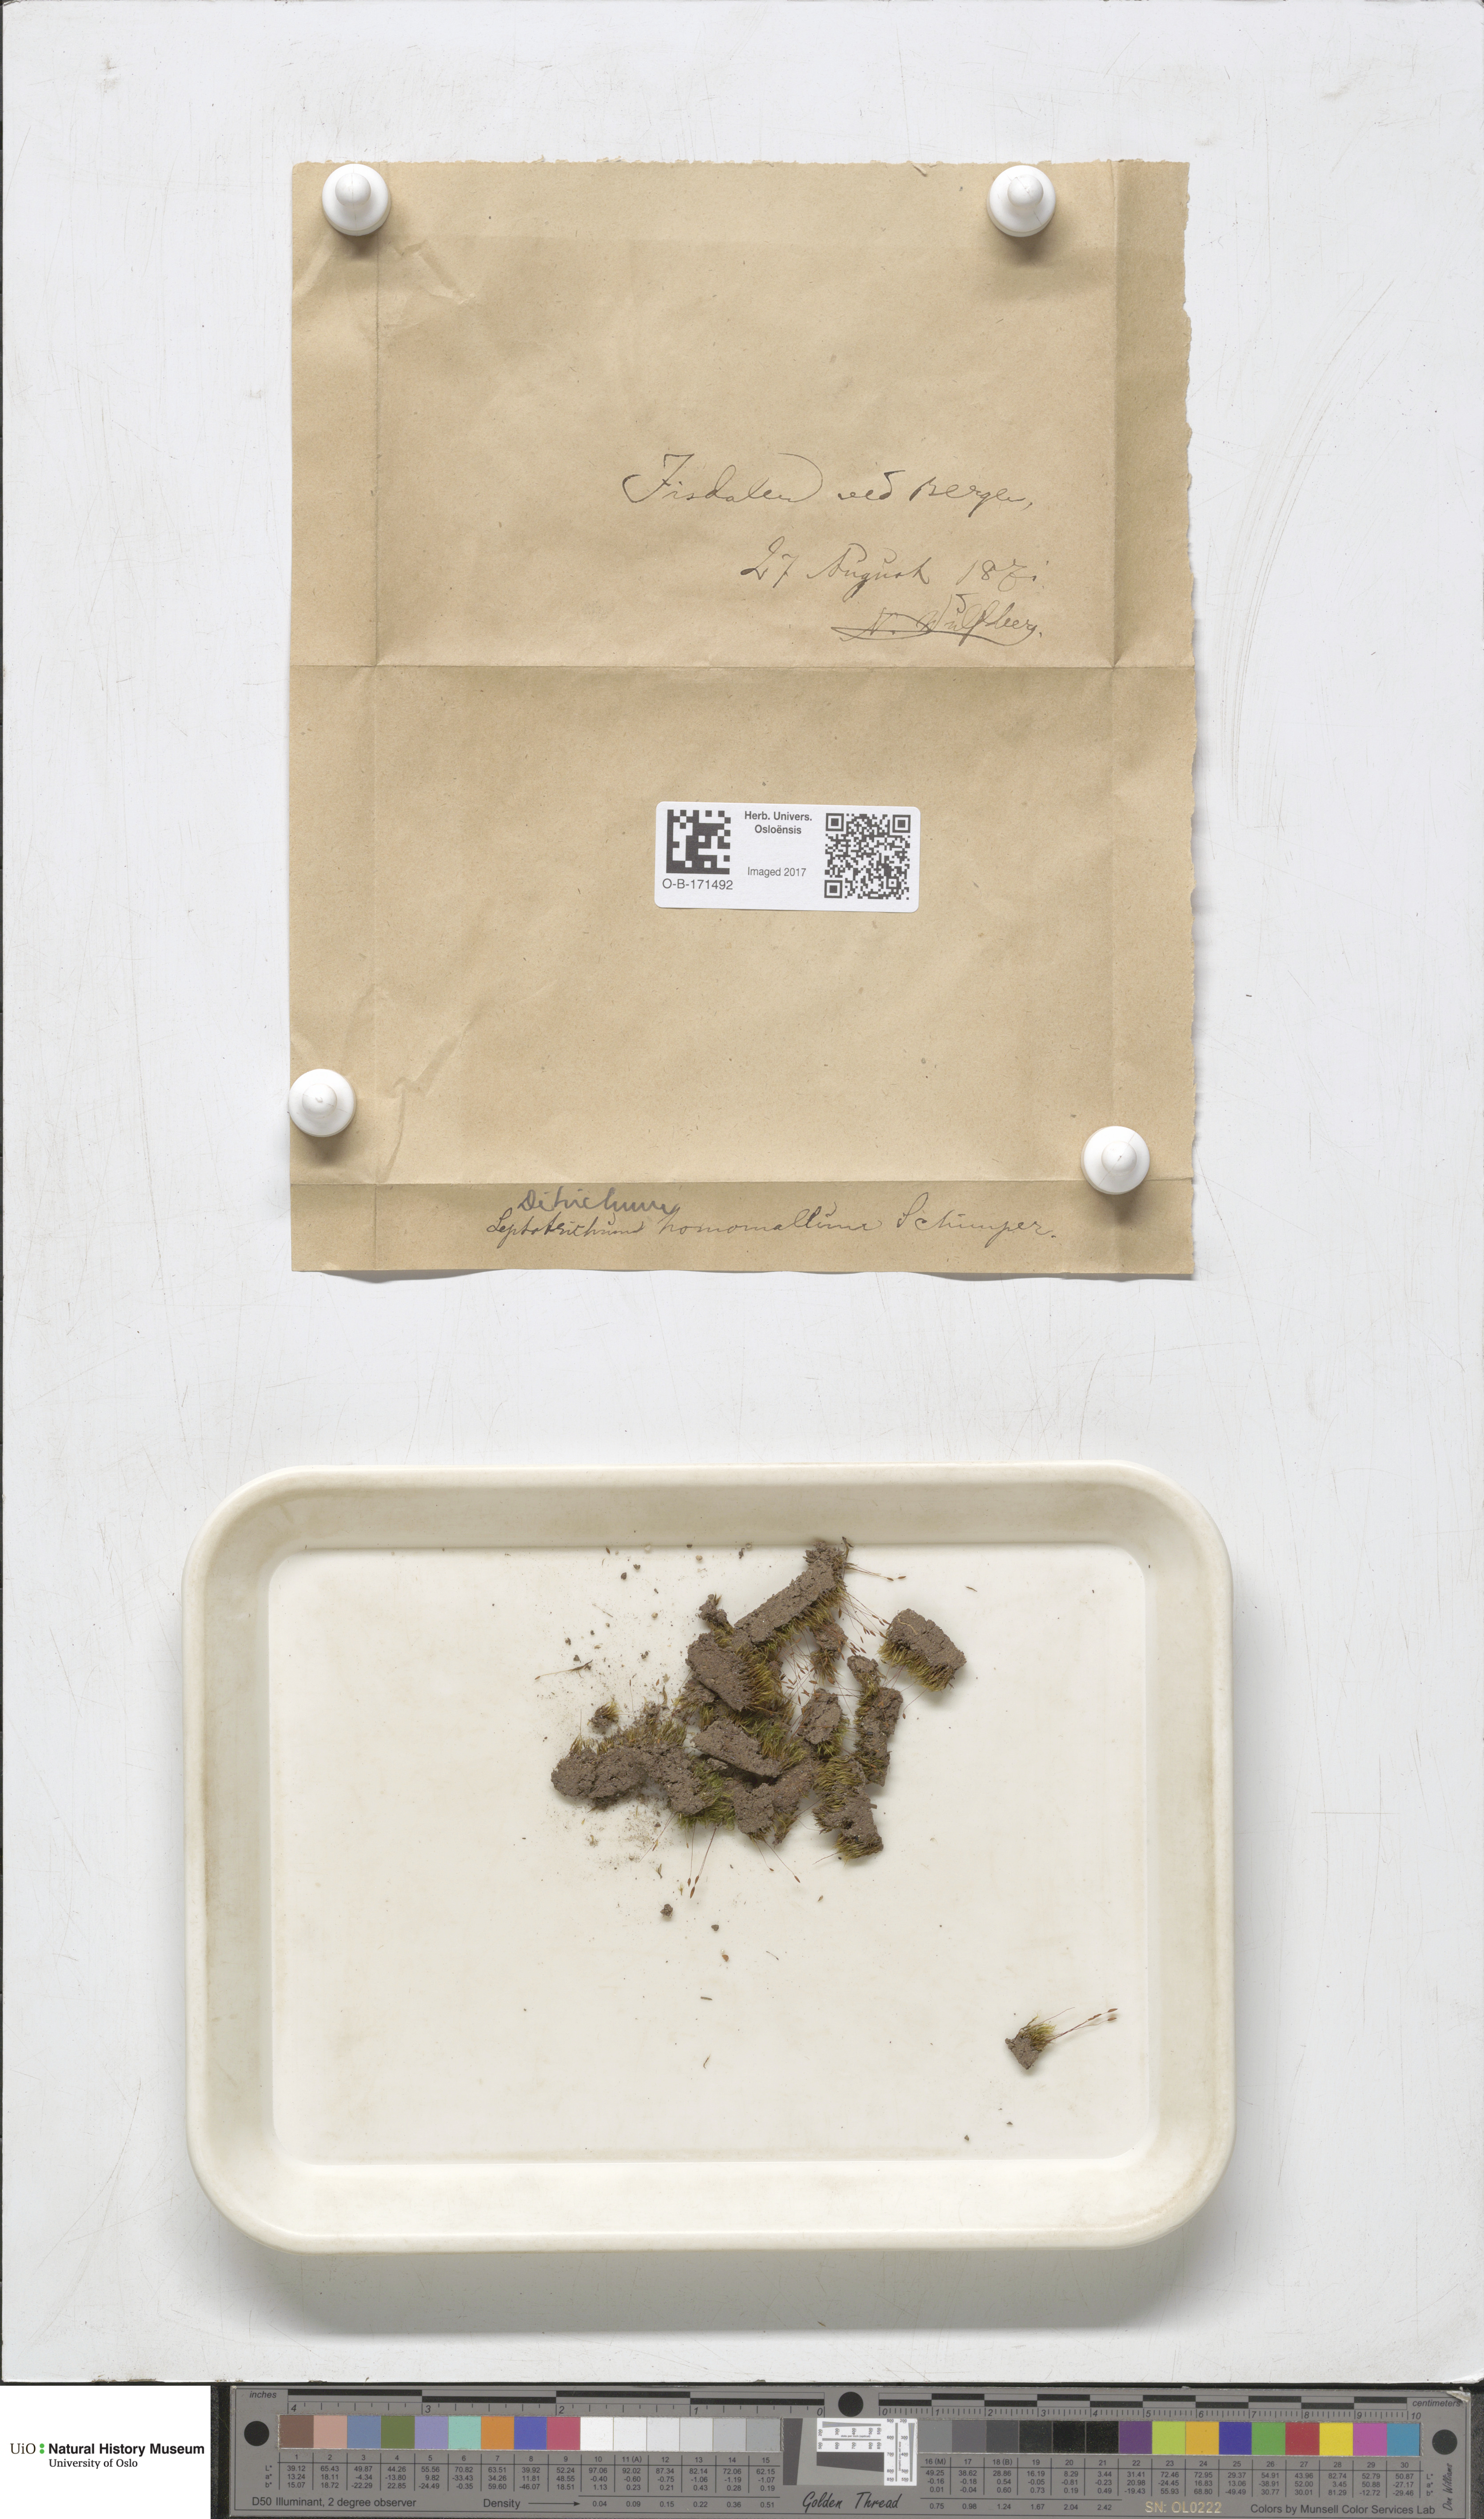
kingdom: Plantae
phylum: Bryophyta
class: Bryopsida
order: Dicranales
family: Ditrichaceae
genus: Ditrichum
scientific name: Ditrichum heteromallum
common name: Curve-leaved ditrichum
